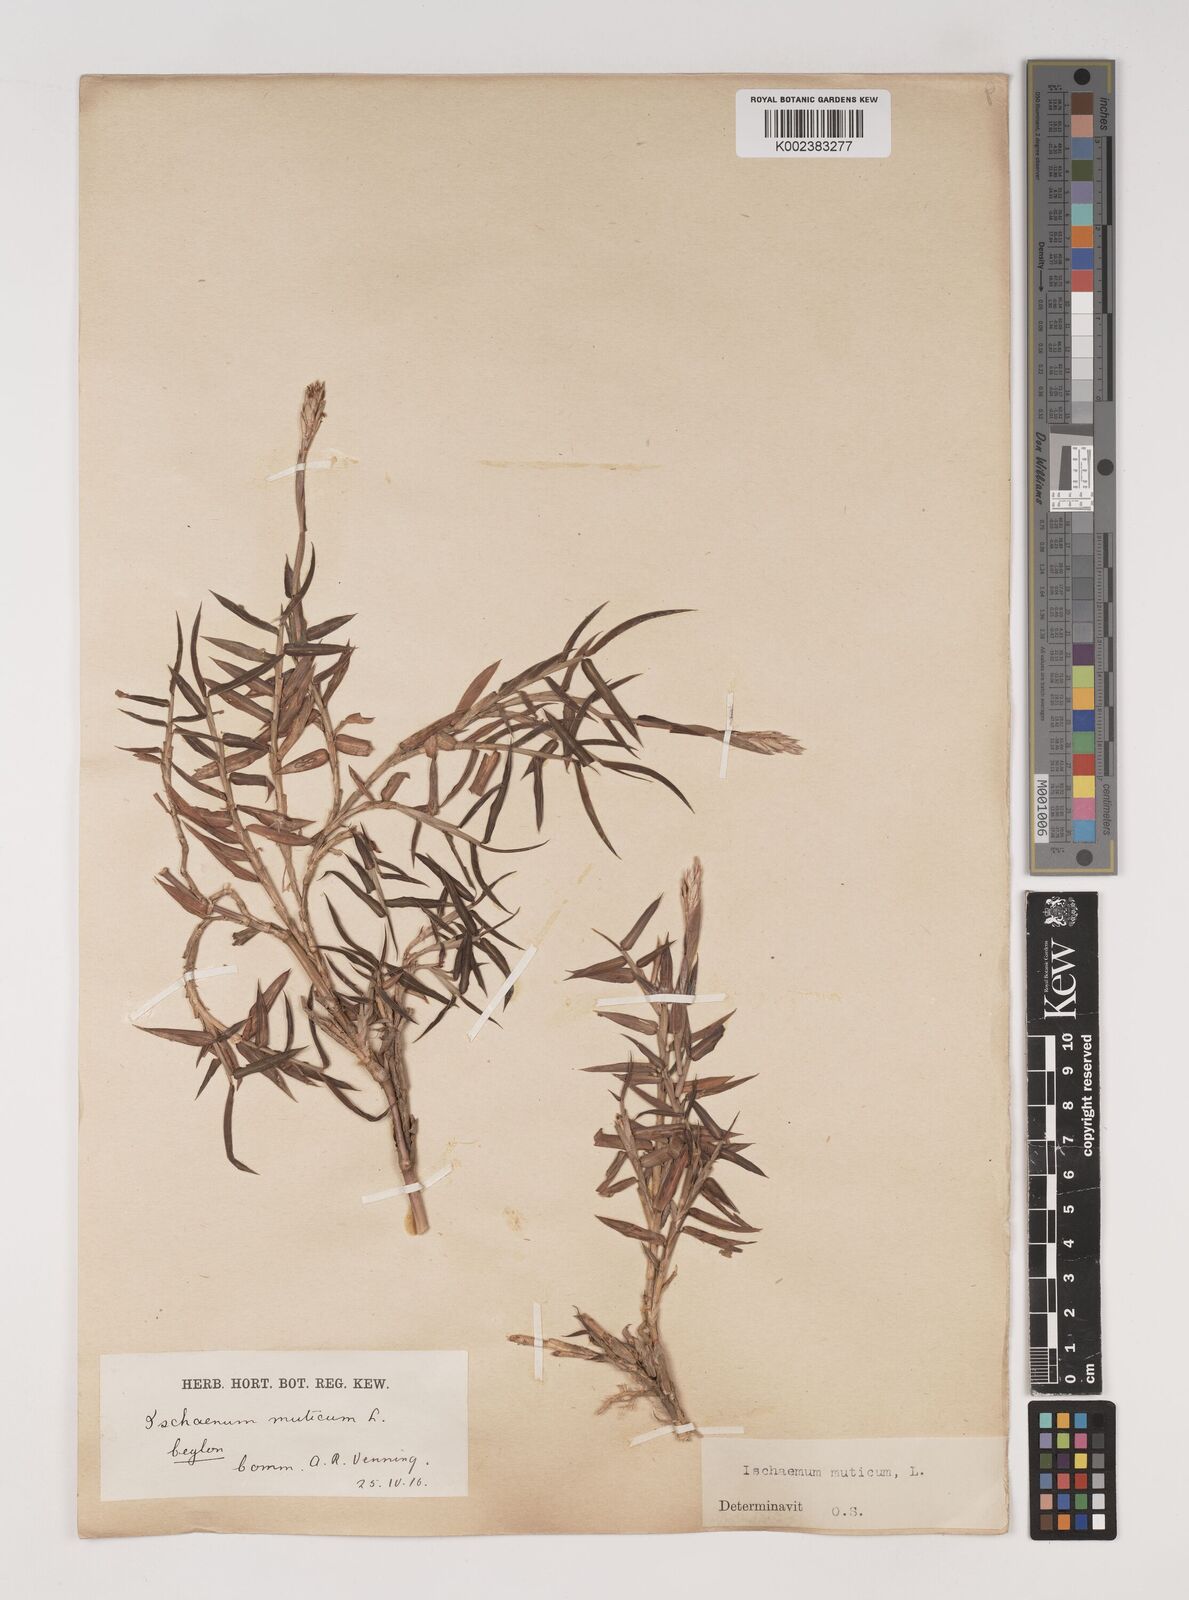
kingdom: Plantae
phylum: Tracheophyta
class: Liliopsida
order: Poales
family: Poaceae
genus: Ischaemum
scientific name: Ischaemum muticum
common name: Drought grass
